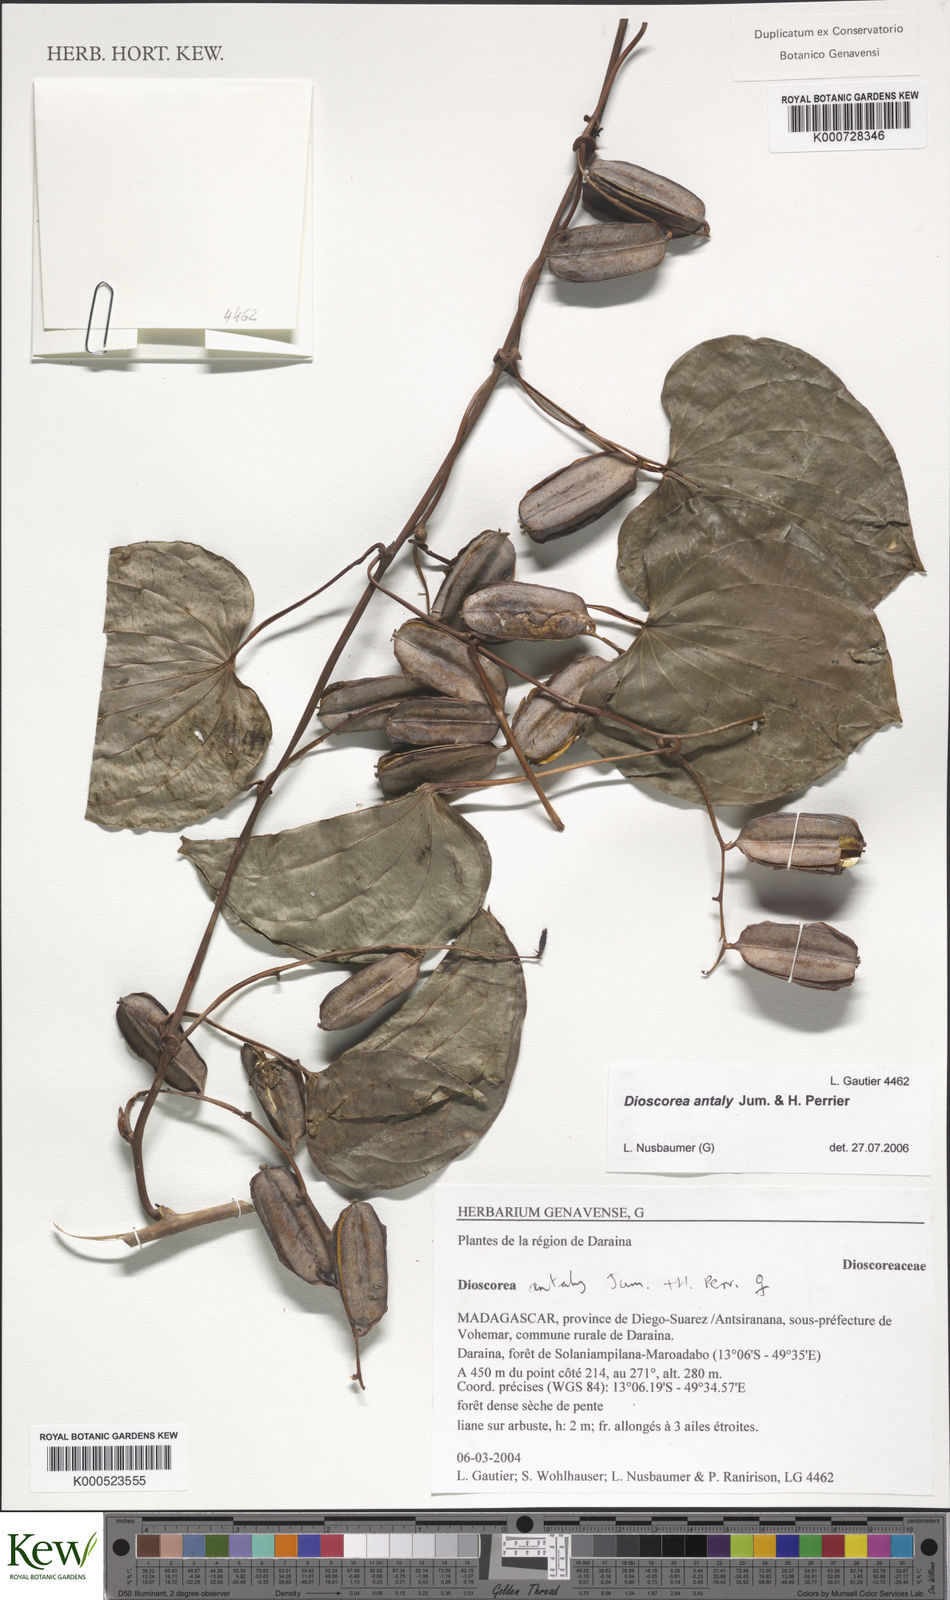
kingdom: Plantae
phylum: Tracheophyta
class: Liliopsida
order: Dioscoreales
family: Dioscoreaceae
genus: Dioscorea
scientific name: Dioscorea antaly
